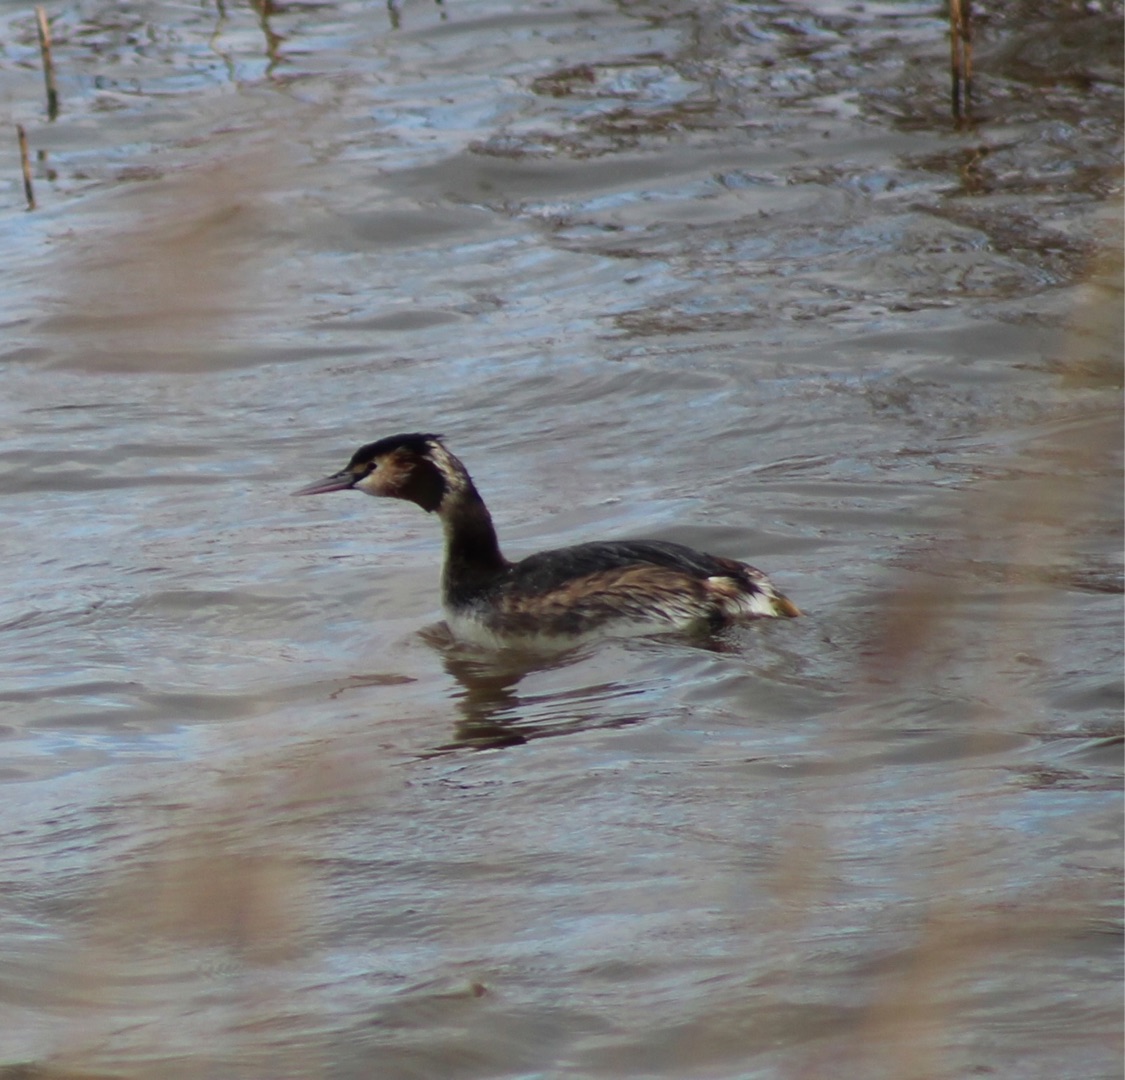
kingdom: Animalia
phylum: Chordata
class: Aves
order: Podicipediformes
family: Podicipedidae
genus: Podiceps
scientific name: Podiceps cristatus
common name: Toppet lappedykker
